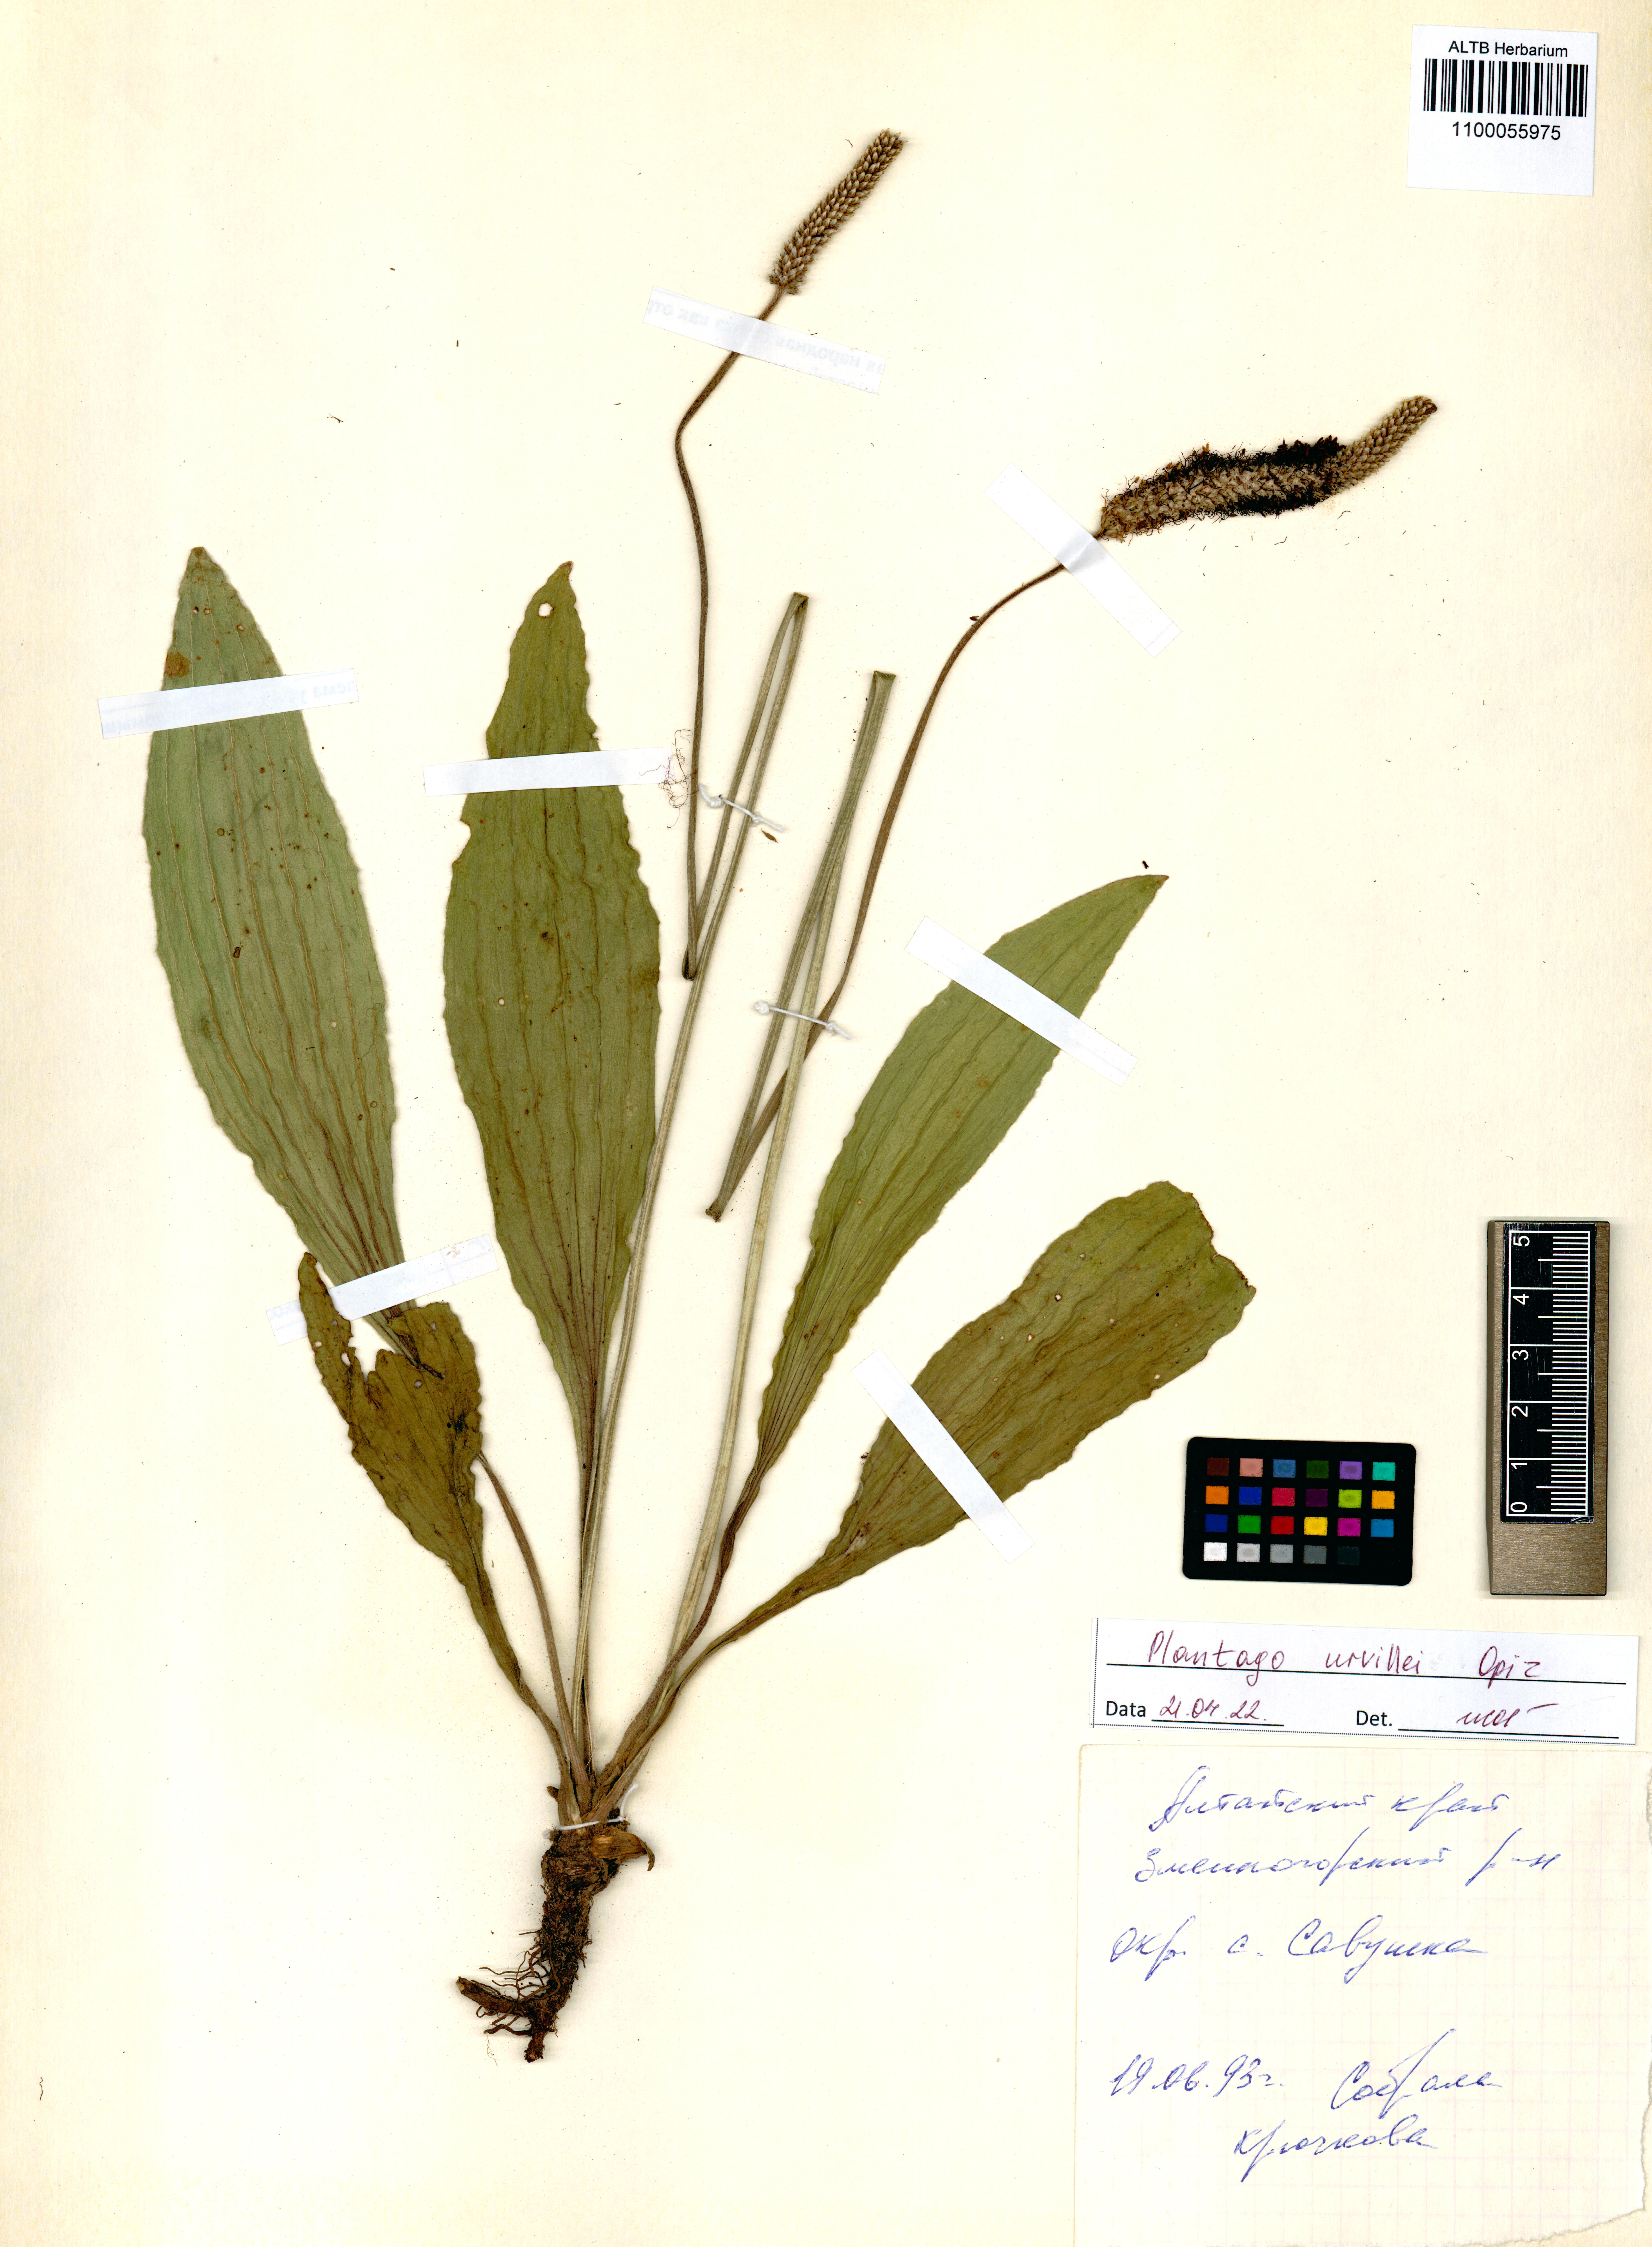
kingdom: Plantae
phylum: Tracheophyta
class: Magnoliopsida
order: Lamiales
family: Plantaginaceae
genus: Plantago
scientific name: Plantago urvillei
